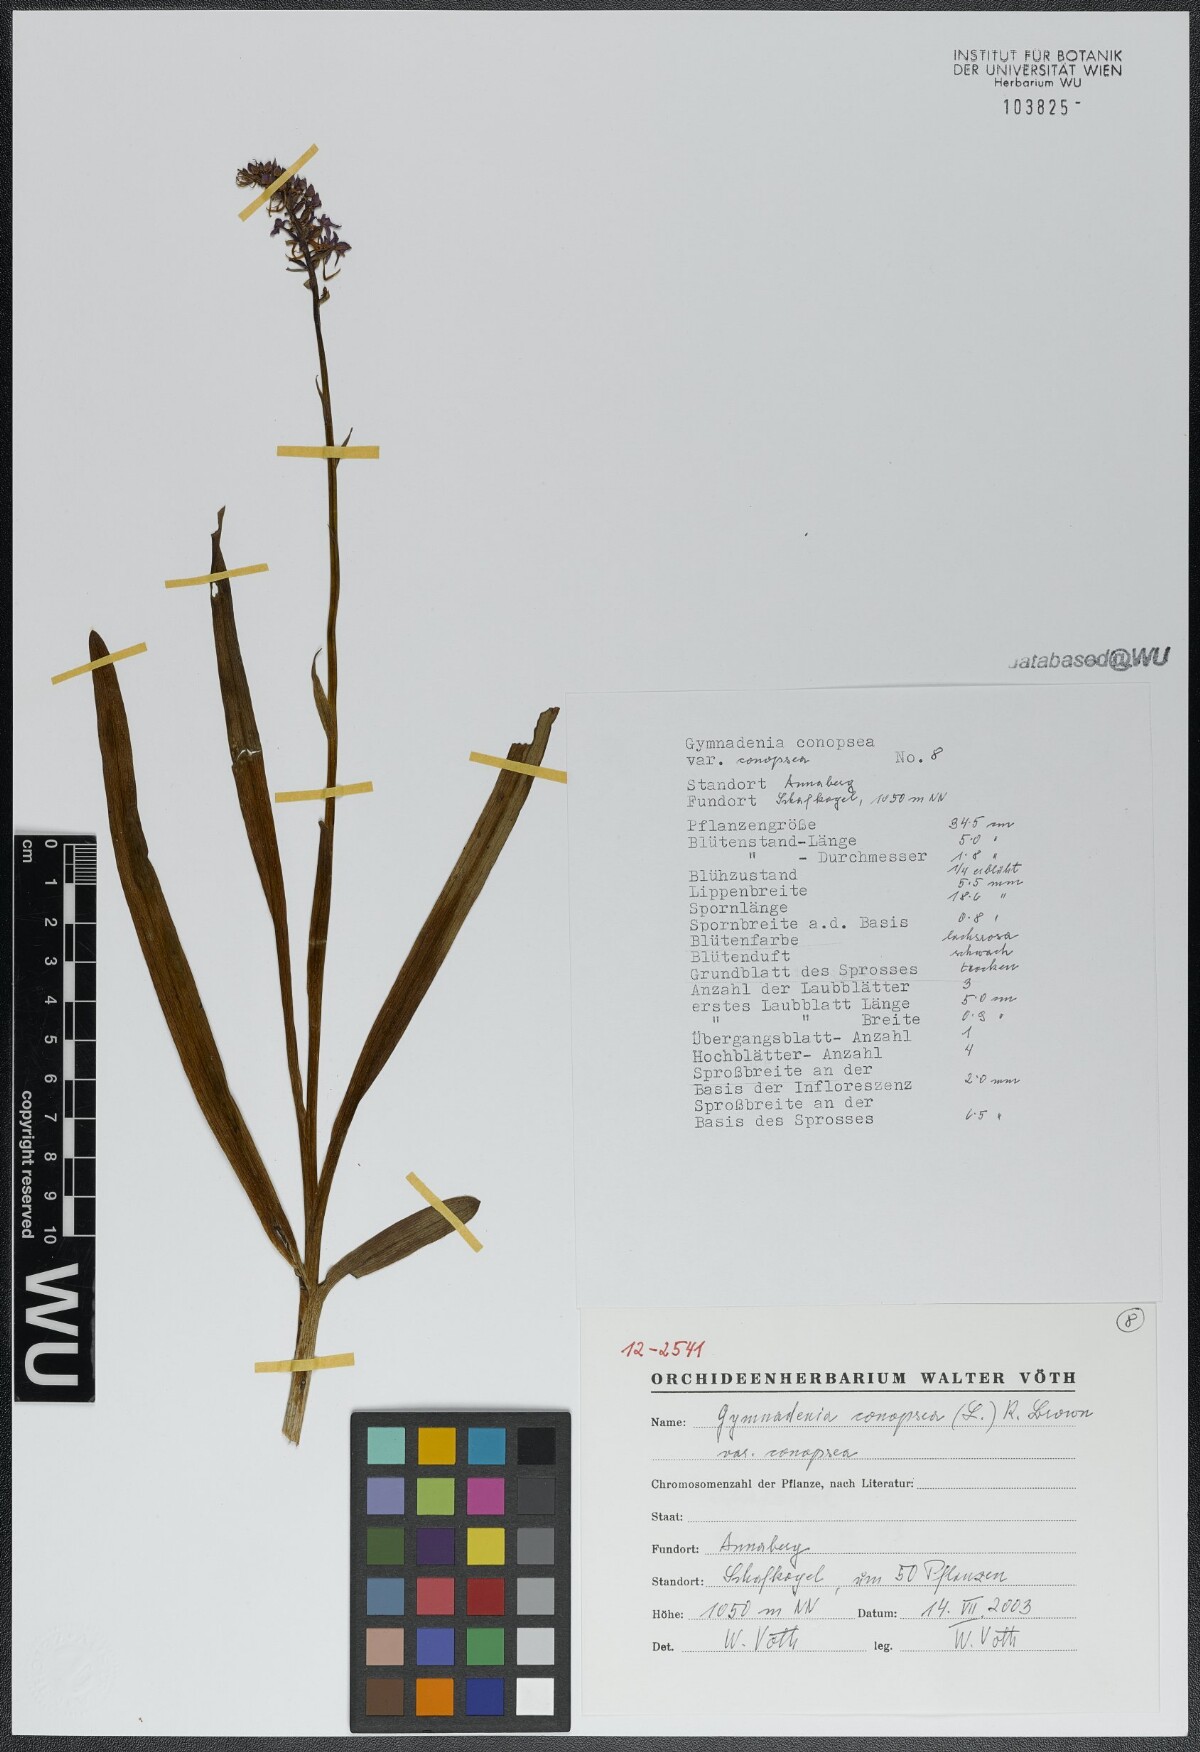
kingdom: Plantae
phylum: Tracheophyta
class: Liliopsida
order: Asparagales
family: Orchidaceae
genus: Gymnadenia
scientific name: Gymnadenia conopsea
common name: Fragrant orchid
